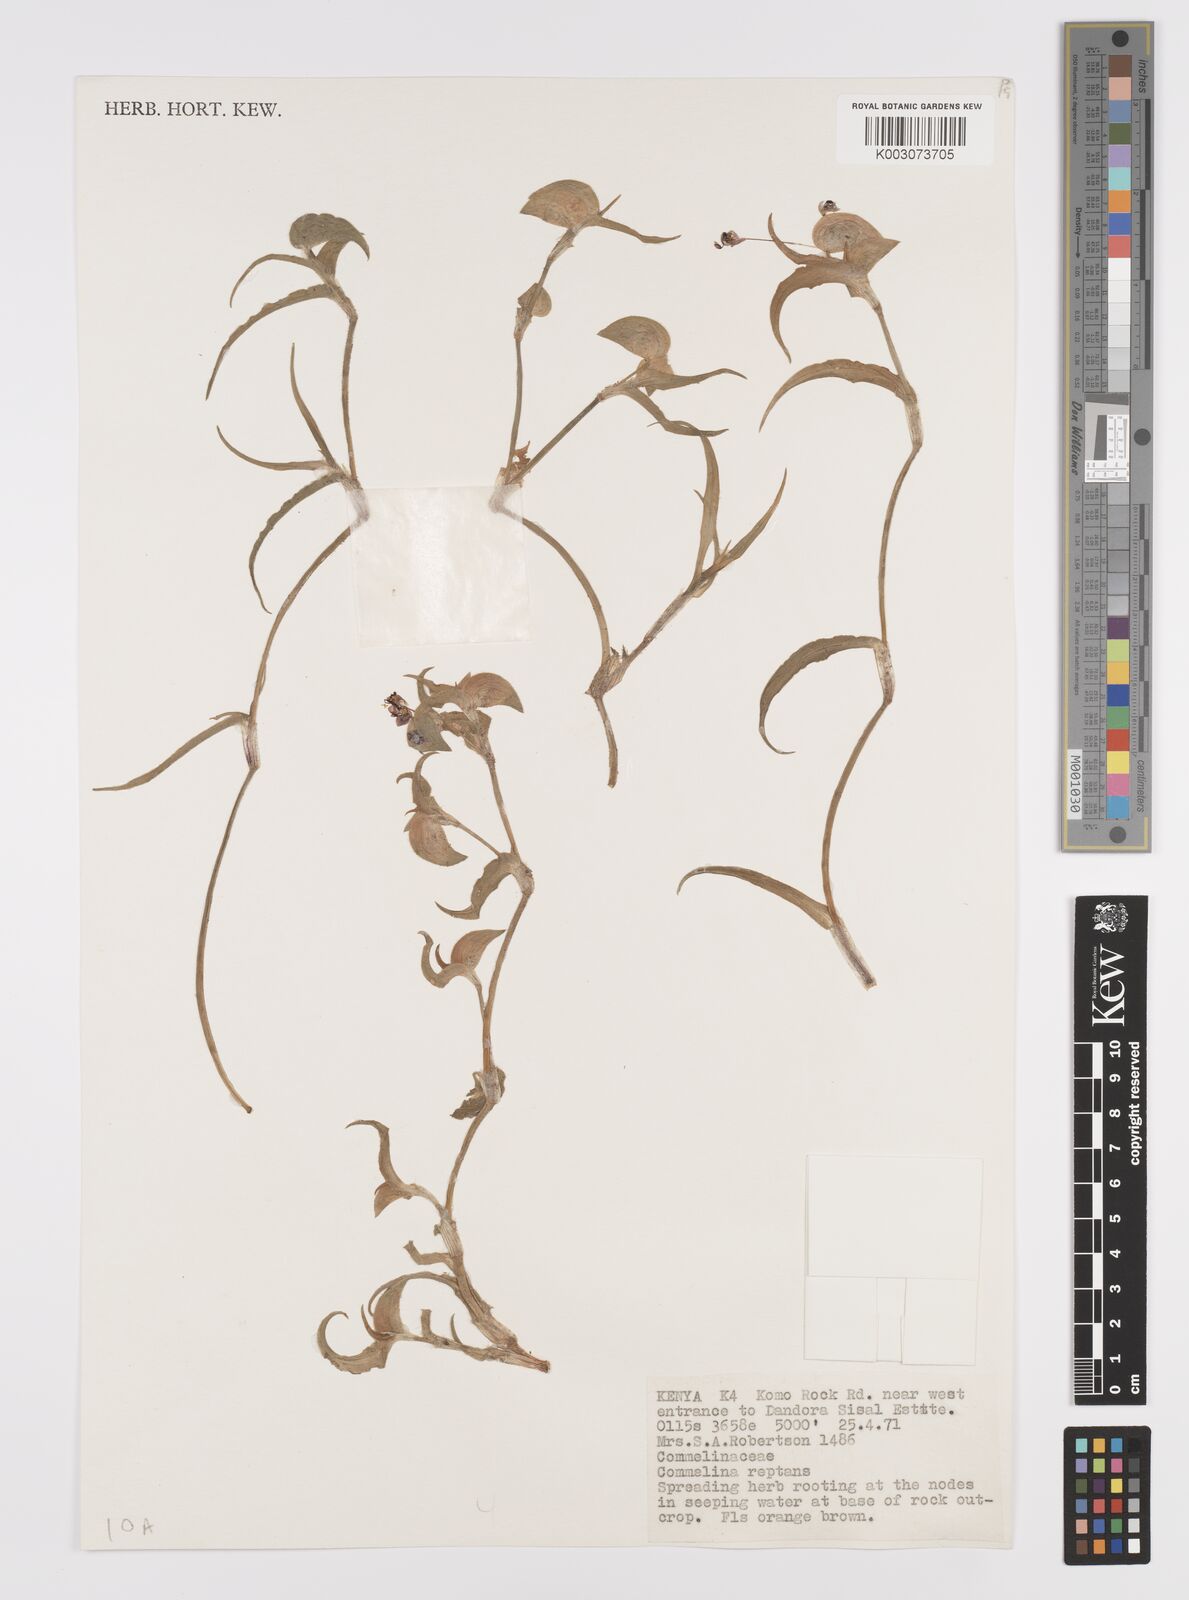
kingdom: Plantae
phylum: Tracheophyta
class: Liliopsida
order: Commelinales
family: Commelinaceae
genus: Commelina
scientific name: Commelina reptans
